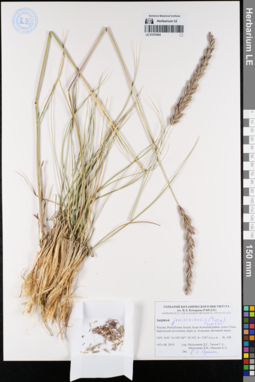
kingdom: Plantae
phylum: Tracheophyta
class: Liliopsida
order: Poales
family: Poaceae
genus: Leymus
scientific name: Leymus jenisseiensis
